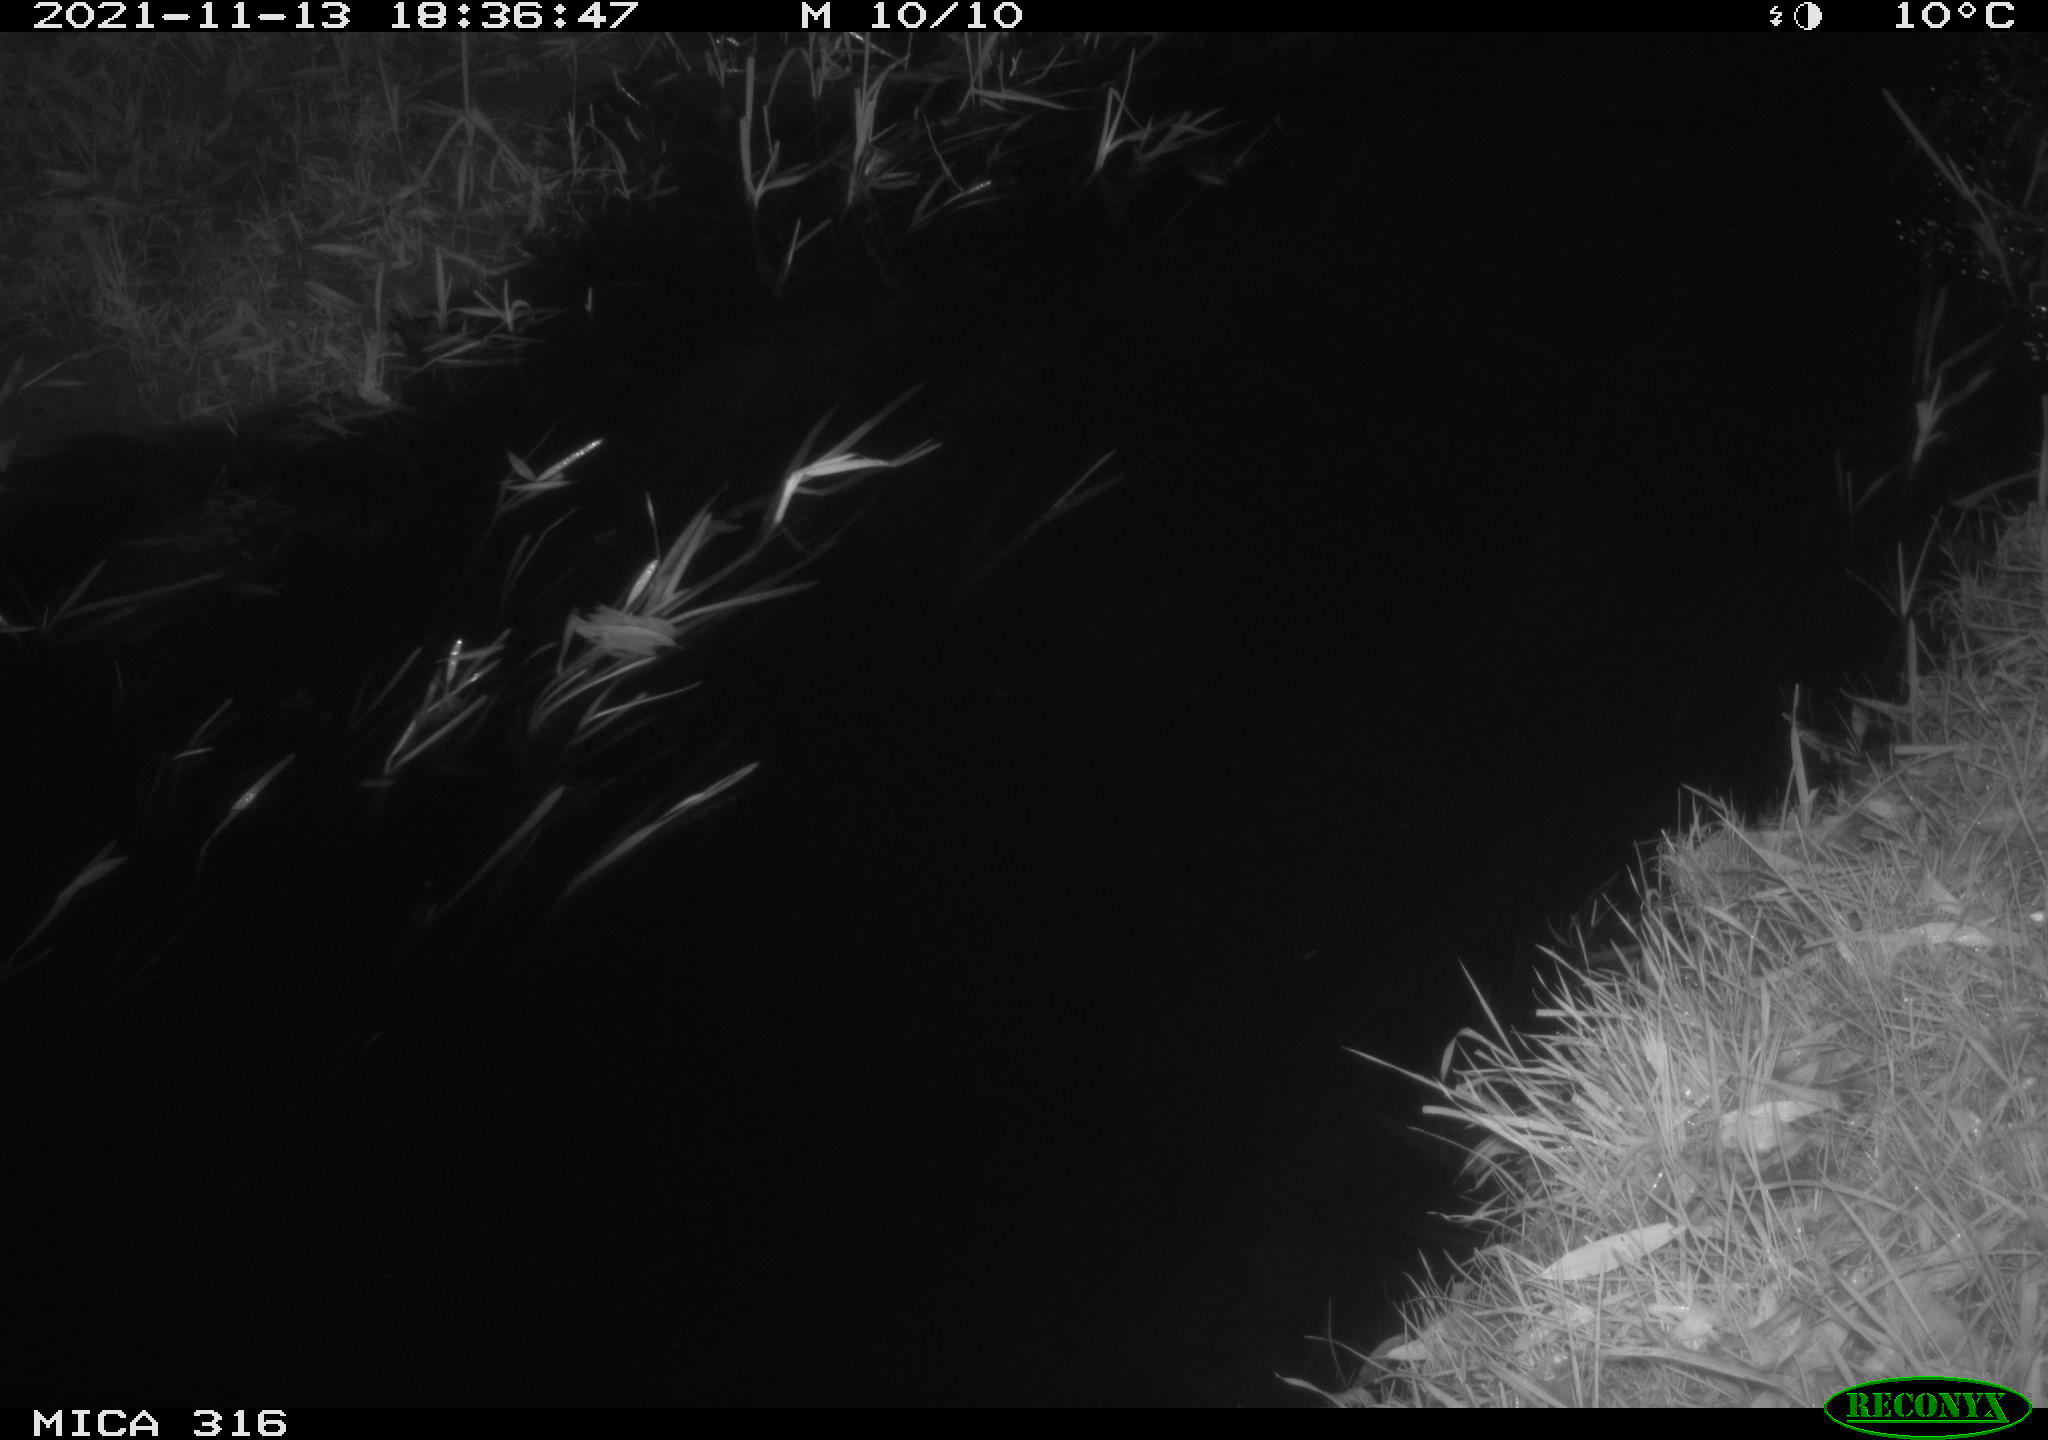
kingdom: Animalia
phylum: Chordata
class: Aves
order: Gruiformes
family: Rallidae
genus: Gallinula
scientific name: Gallinula chloropus
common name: Common moorhen
